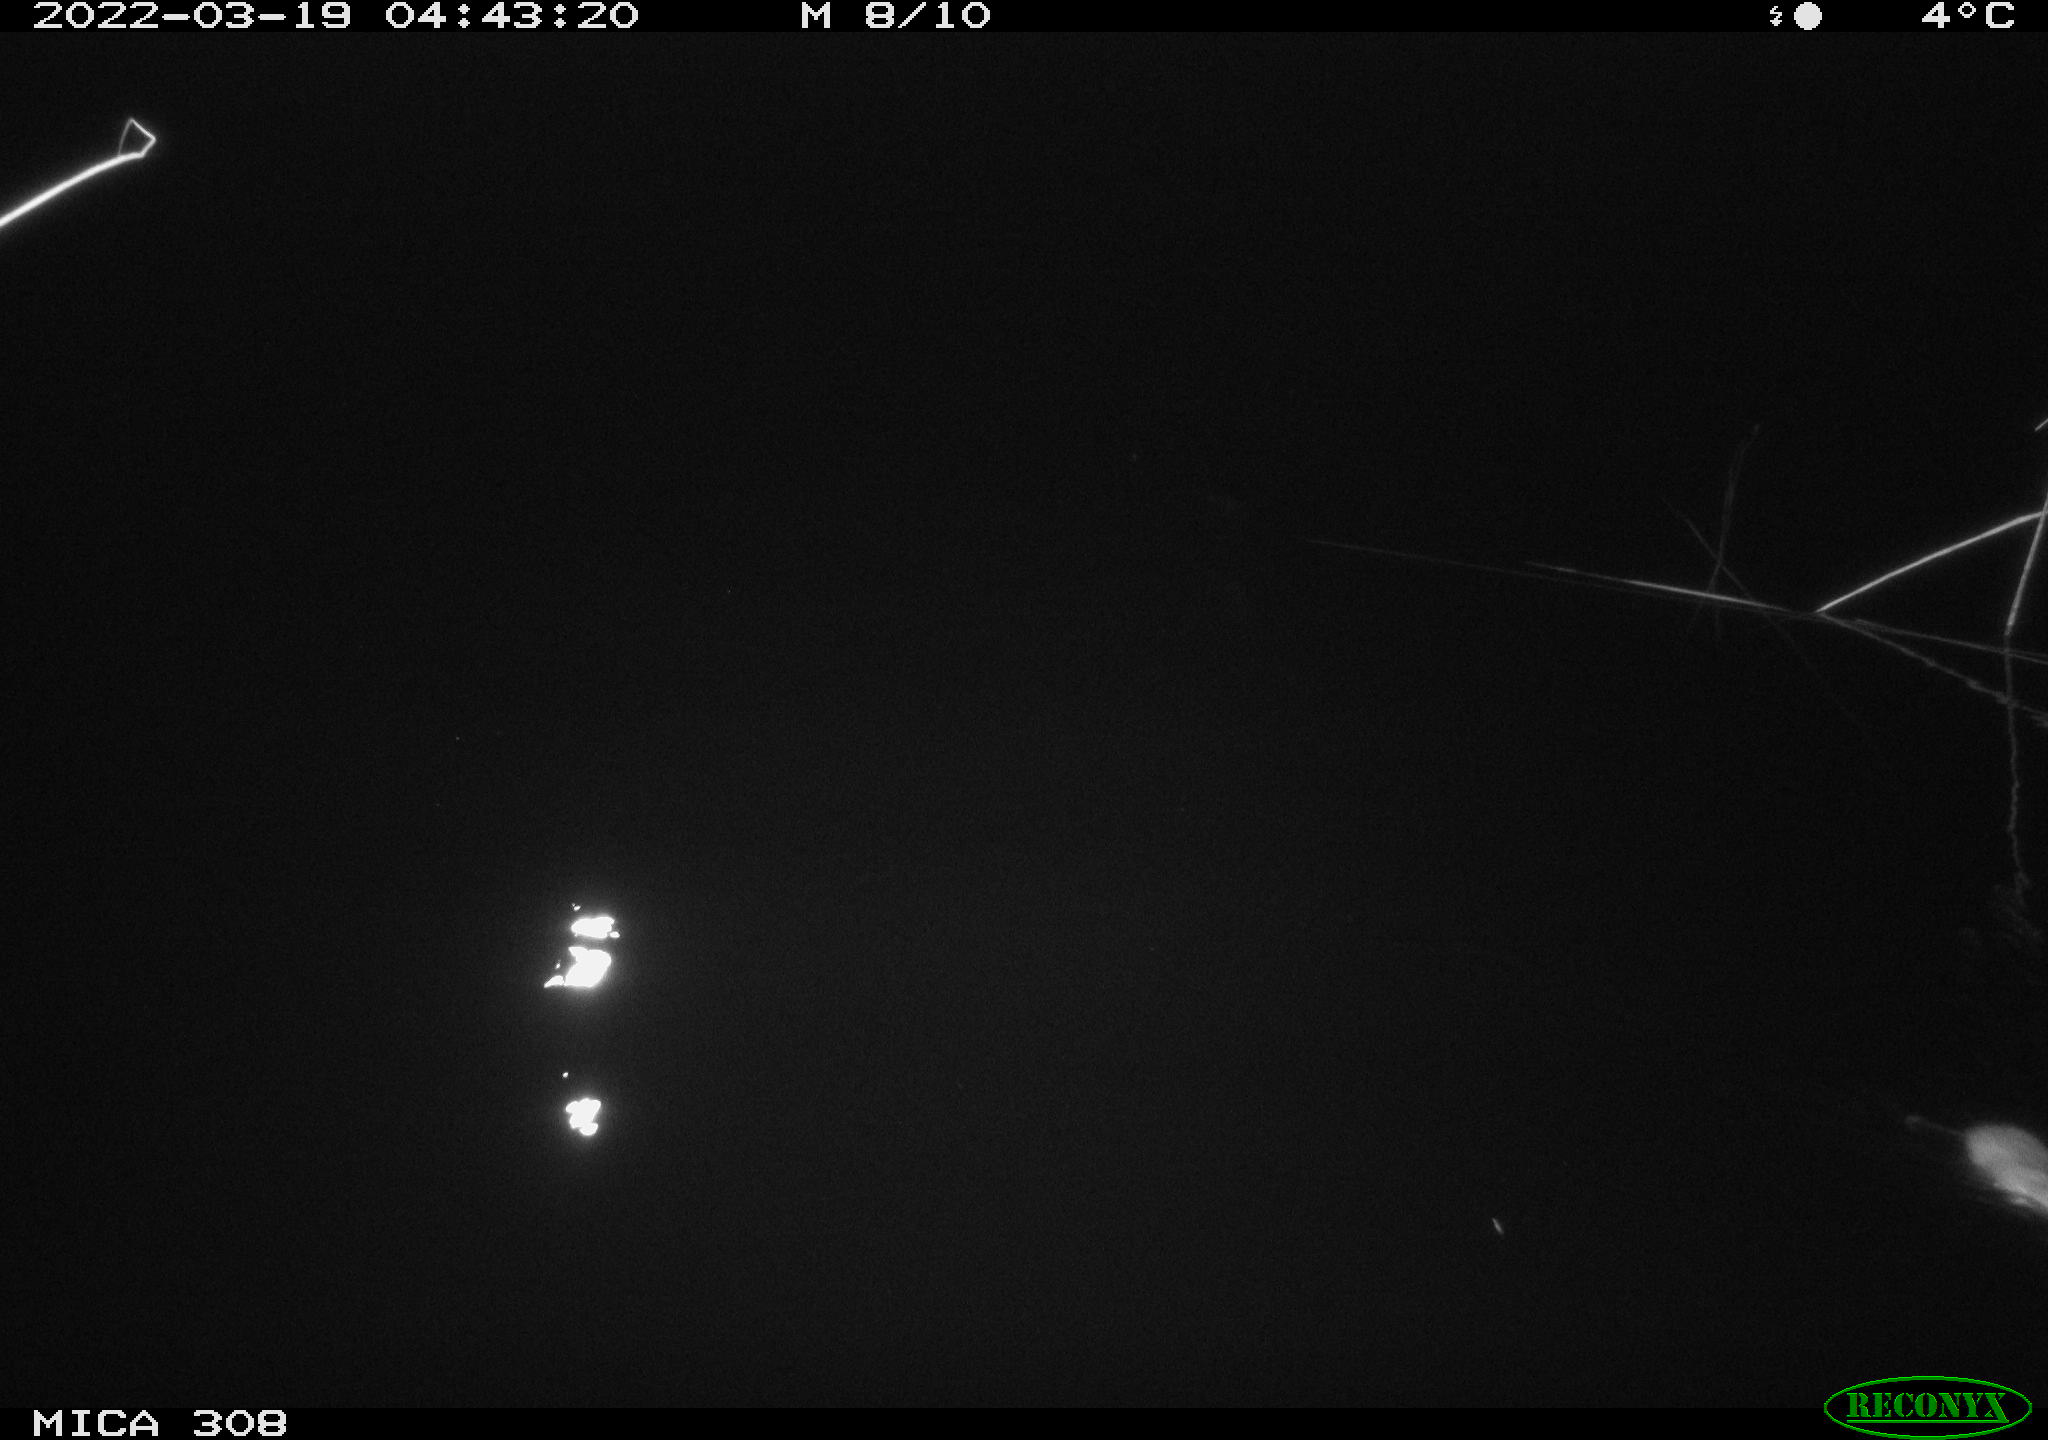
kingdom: Animalia
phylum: Chordata
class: Mammalia
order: Rodentia
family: Muridae
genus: Rattus
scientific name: Rattus norvegicus
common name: Brown rat
